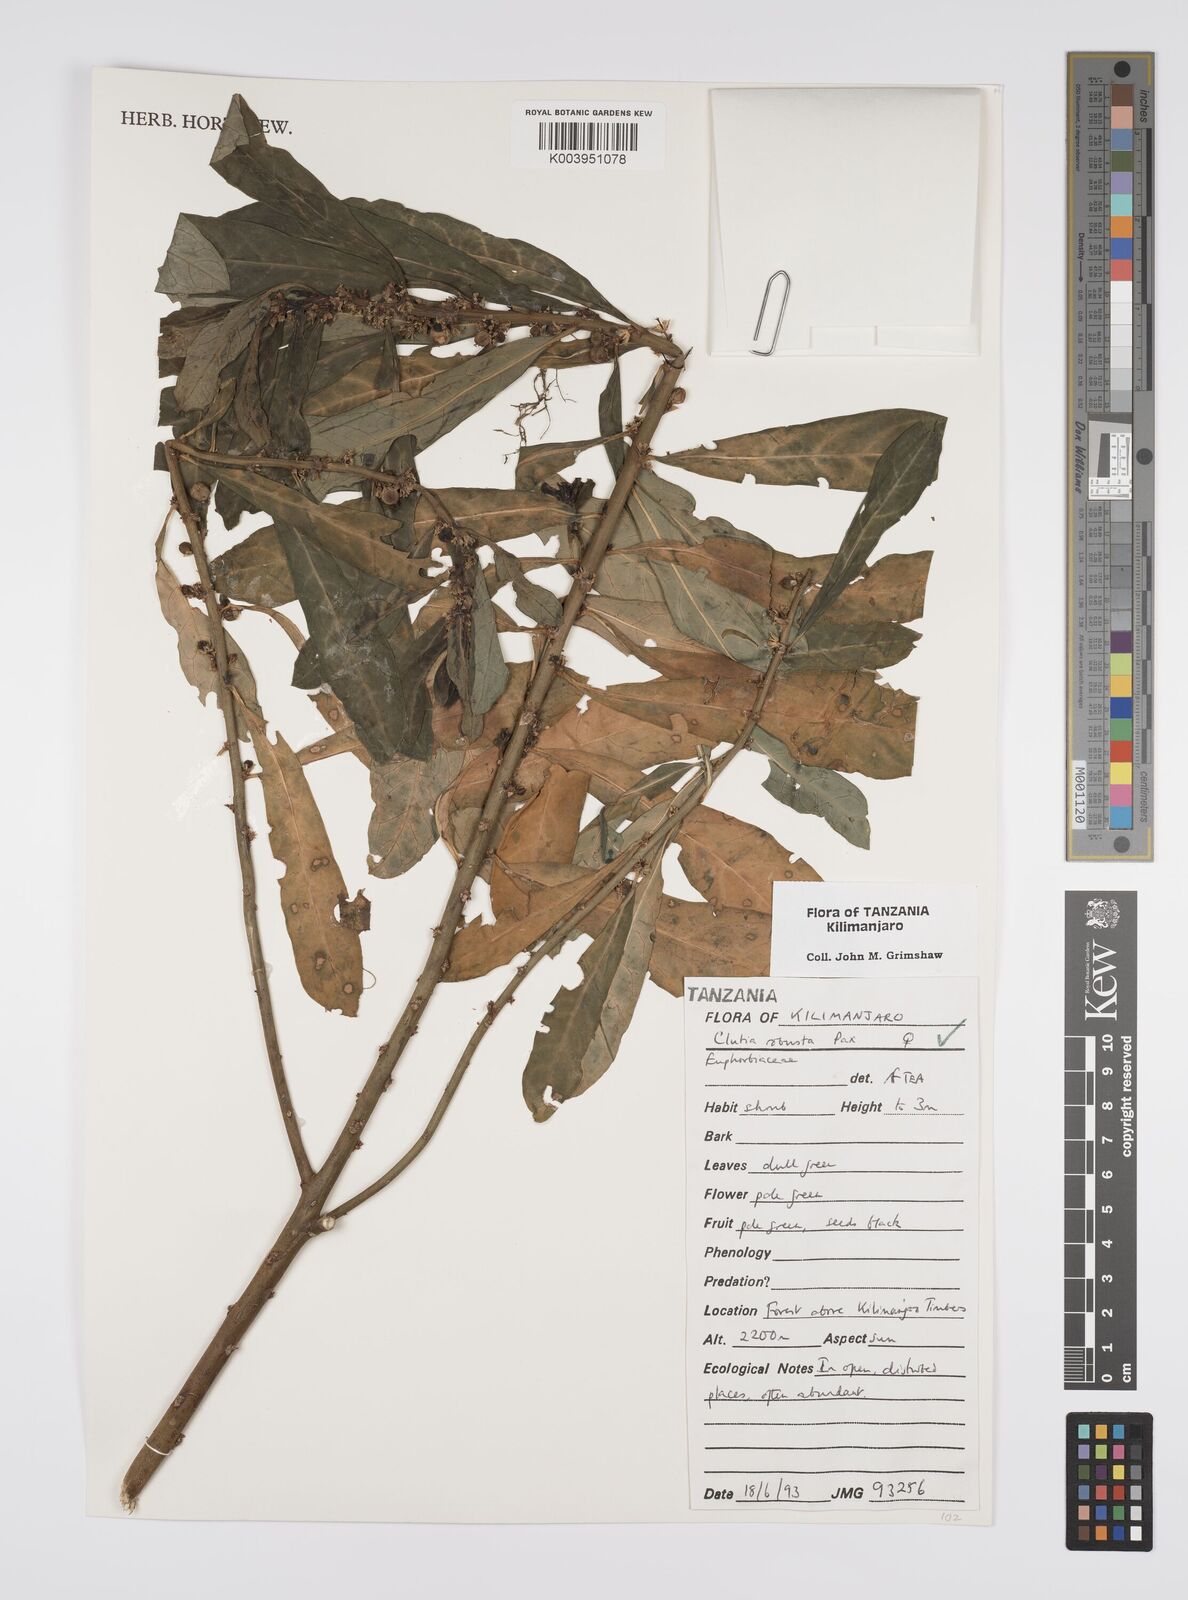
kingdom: Plantae
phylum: Tracheophyta
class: Magnoliopsida
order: Malpighiales
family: Peraceae
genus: Clutia
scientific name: Clutia kilimandscharica
